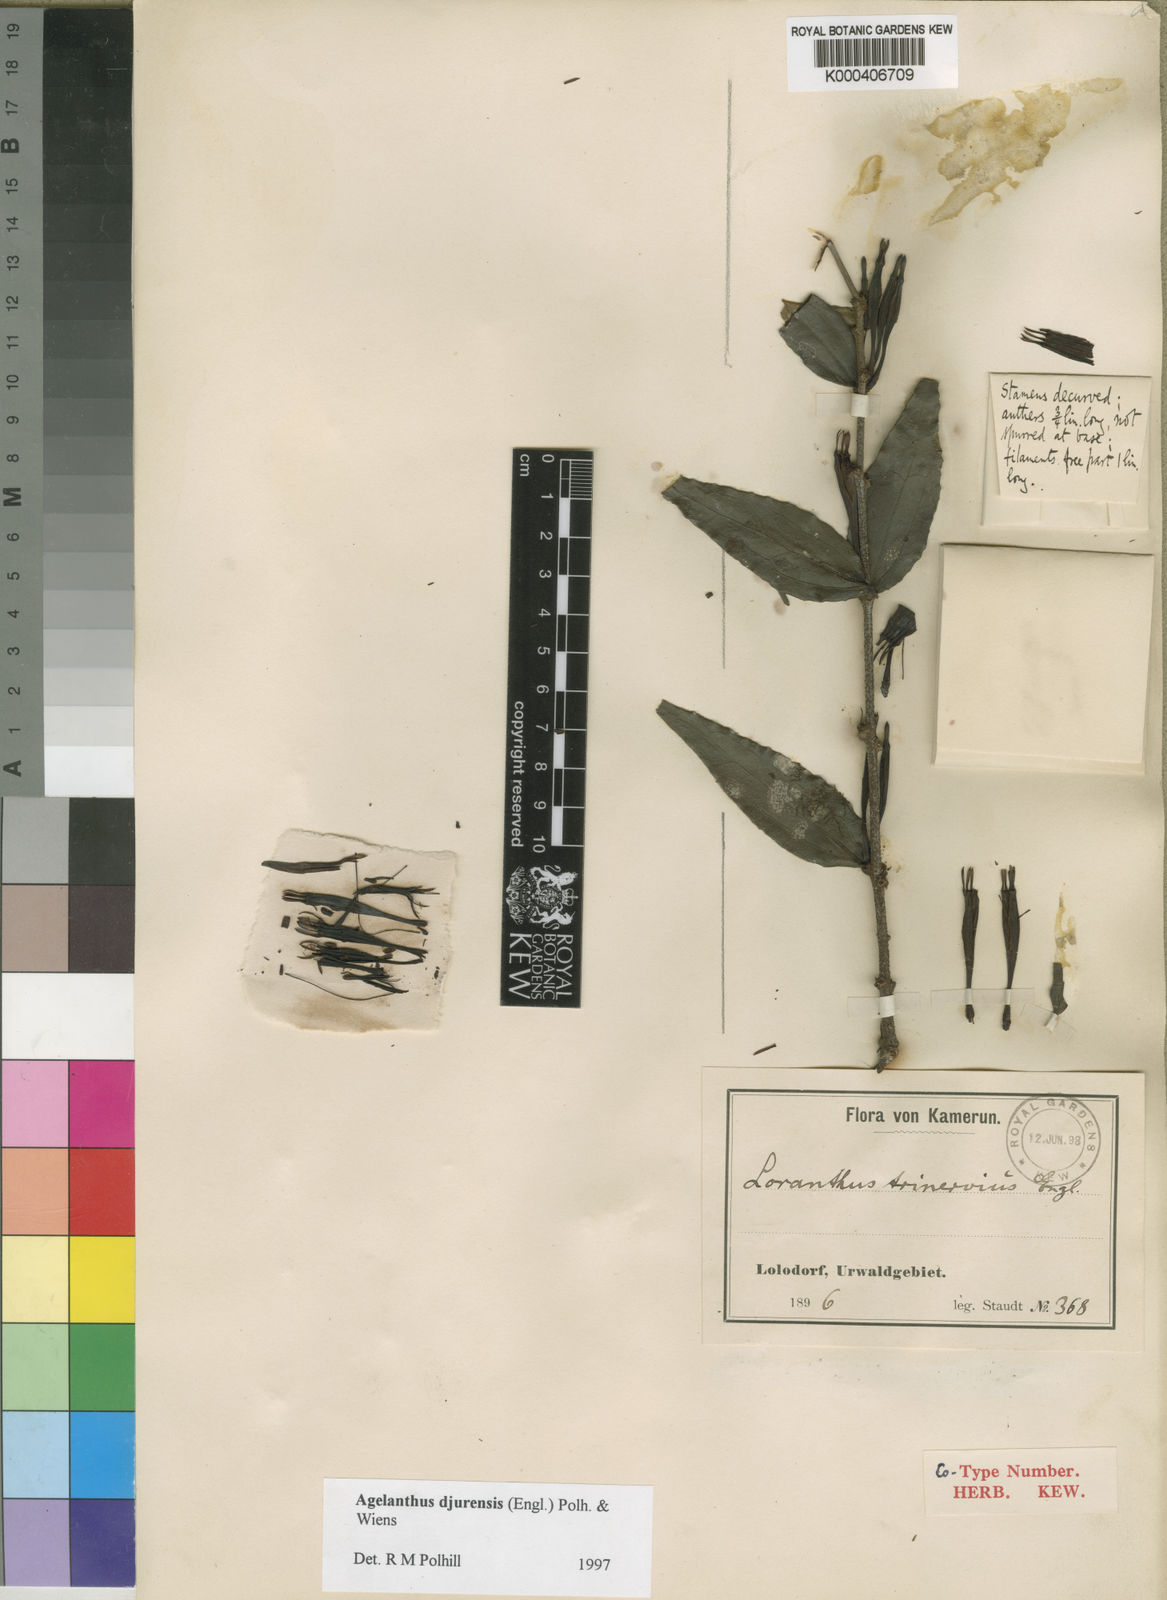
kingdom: Plantae
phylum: Tracheophyta
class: Magnoliopsida
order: Santalales
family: Loranthaceae
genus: Agelanthus
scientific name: Agelanthus djurensis
